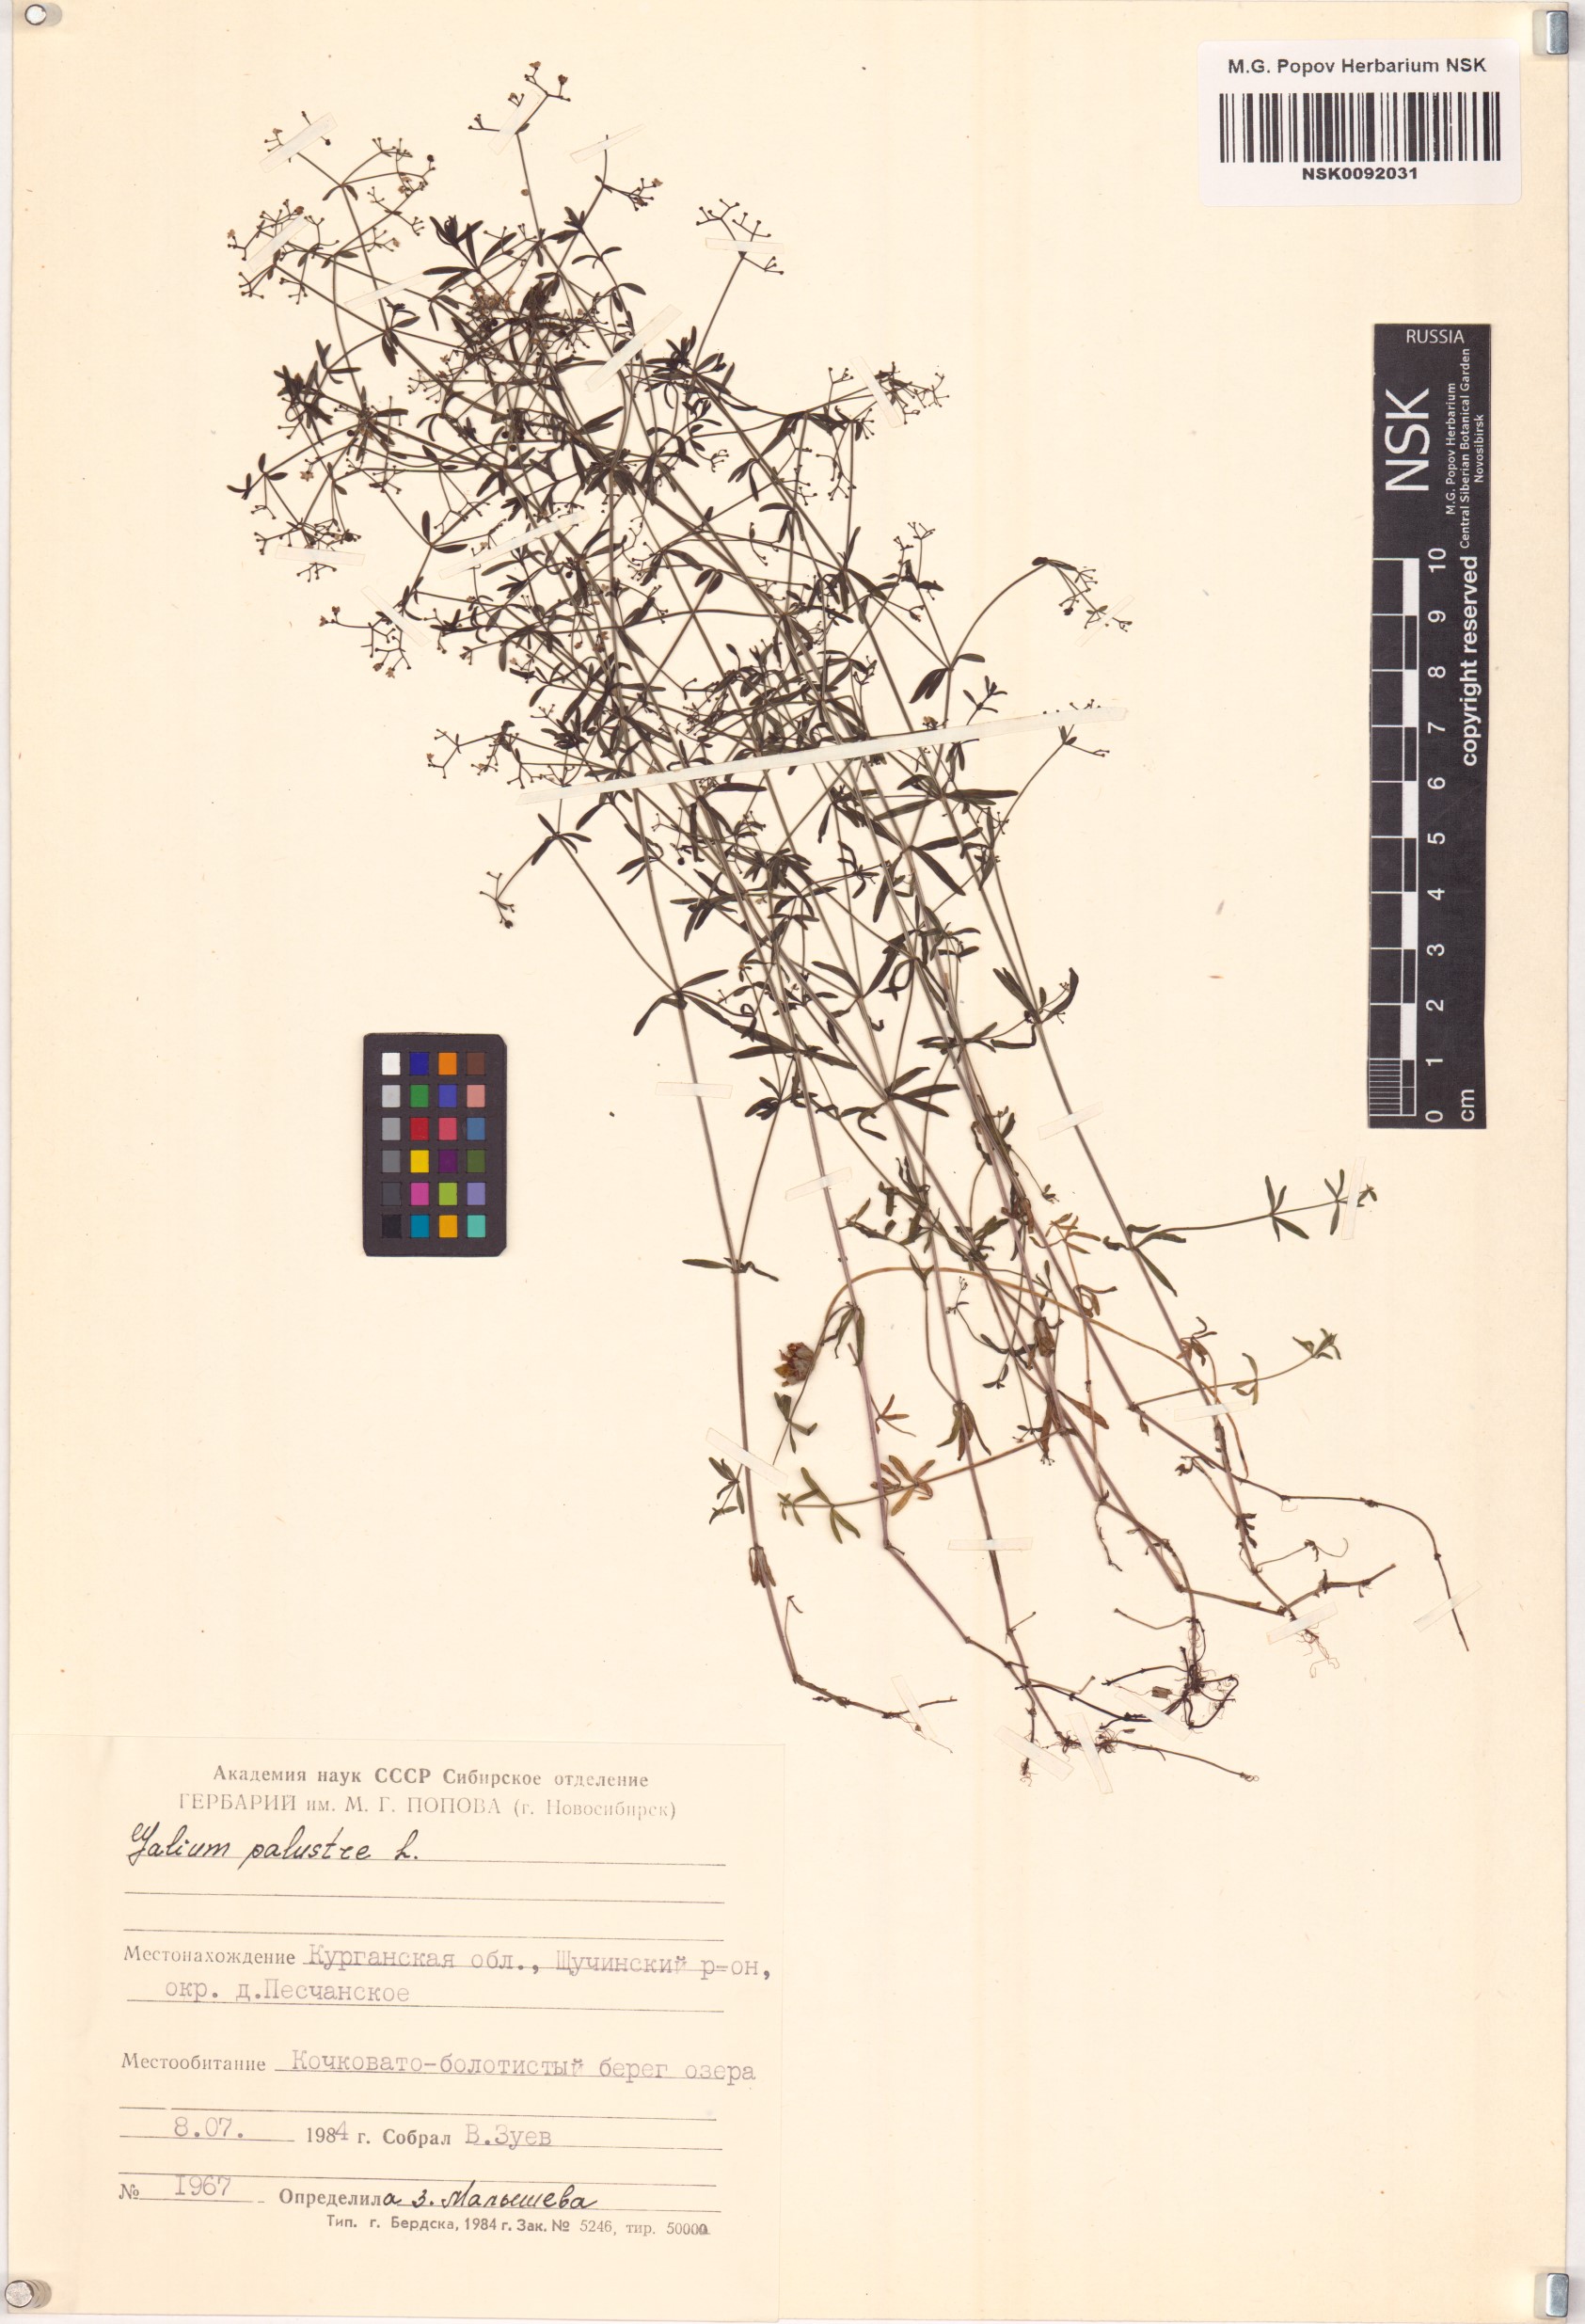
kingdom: Plantae
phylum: Tracheophyta
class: Magnoliopsida
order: Gentianales
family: Rubiaceae
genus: Galium
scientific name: Galium palustre
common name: Common marsh-bedstraw
